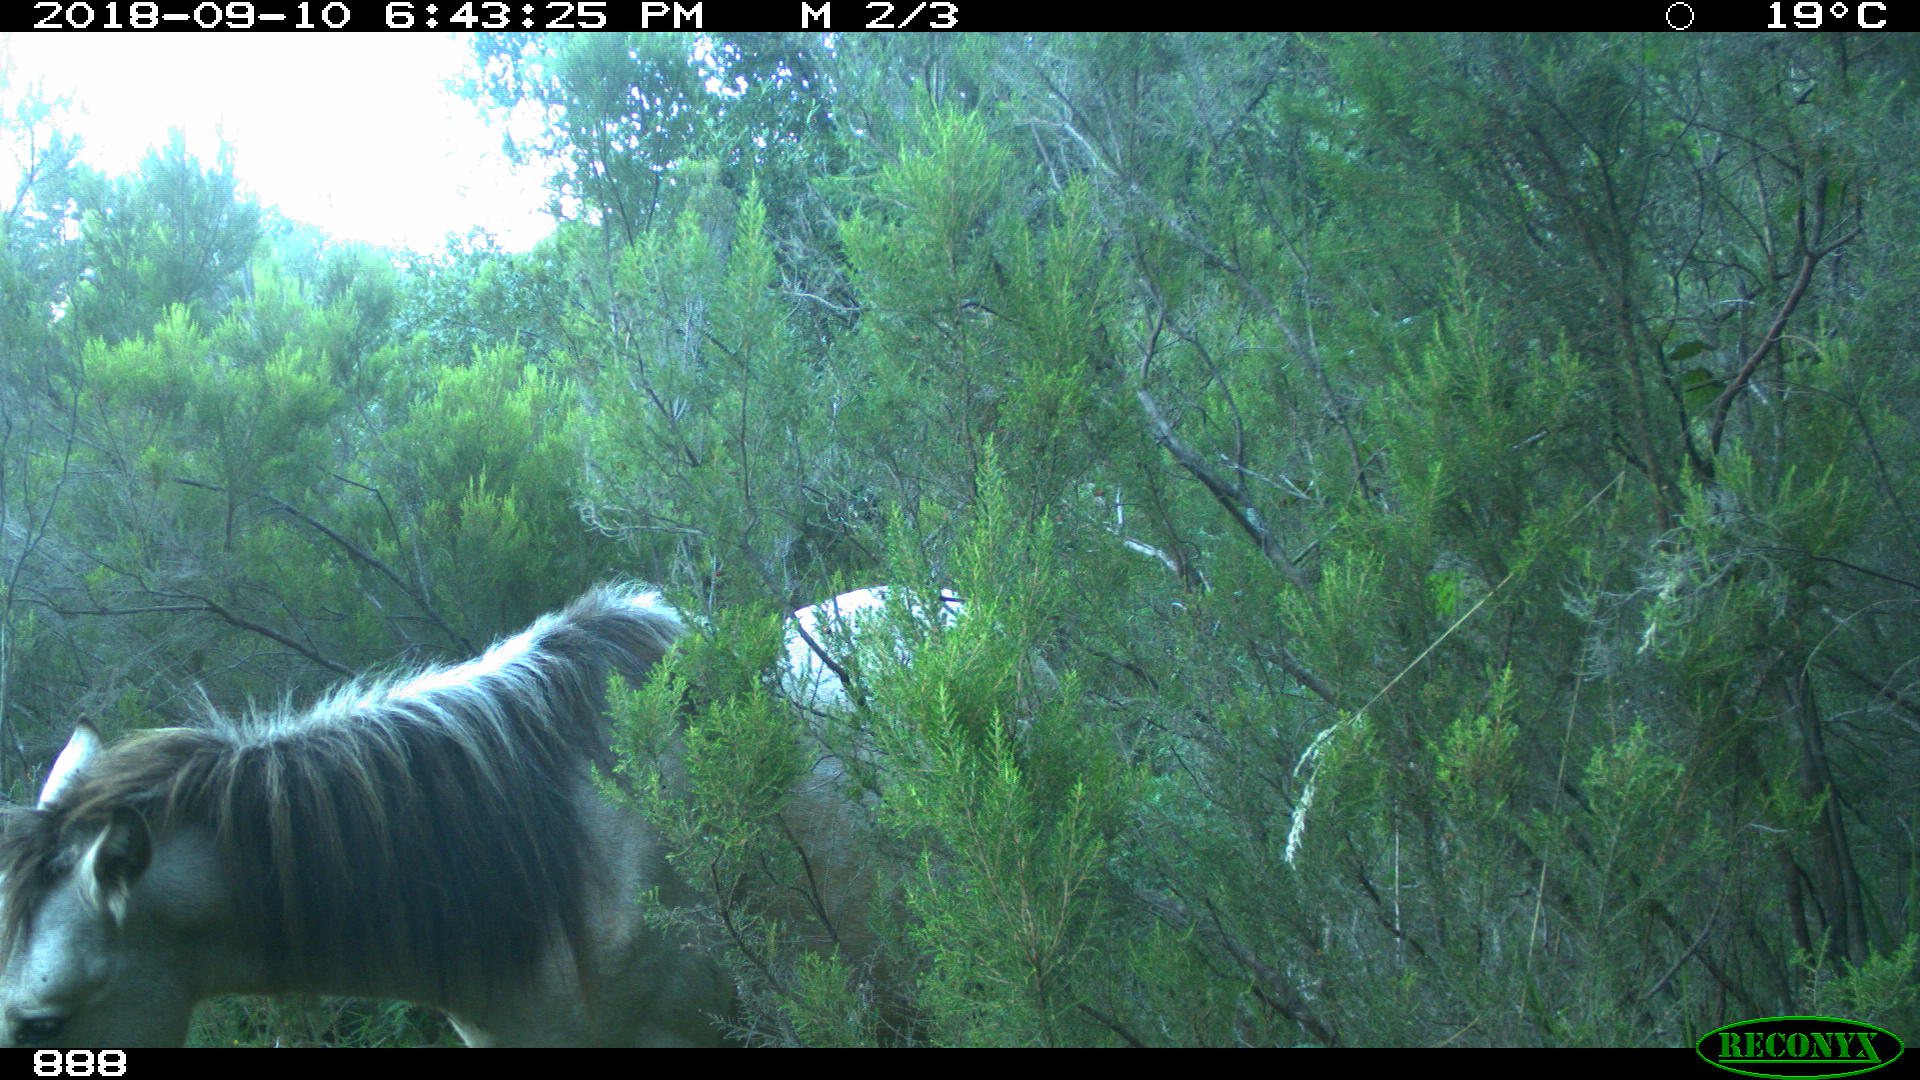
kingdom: Animalia
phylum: Chordata
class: Mammalia
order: Perissodactyla
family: Equidae
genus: Equus
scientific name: Equus caballus
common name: Horse
